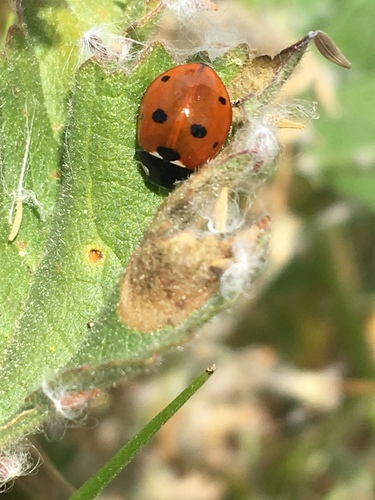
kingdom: Animalia
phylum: Arthropoda
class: Insecta
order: Coleoptera
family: Coccinellidae
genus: Coccinella
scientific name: Coccinella septempunctata
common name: Sevenspotted lady beetle
